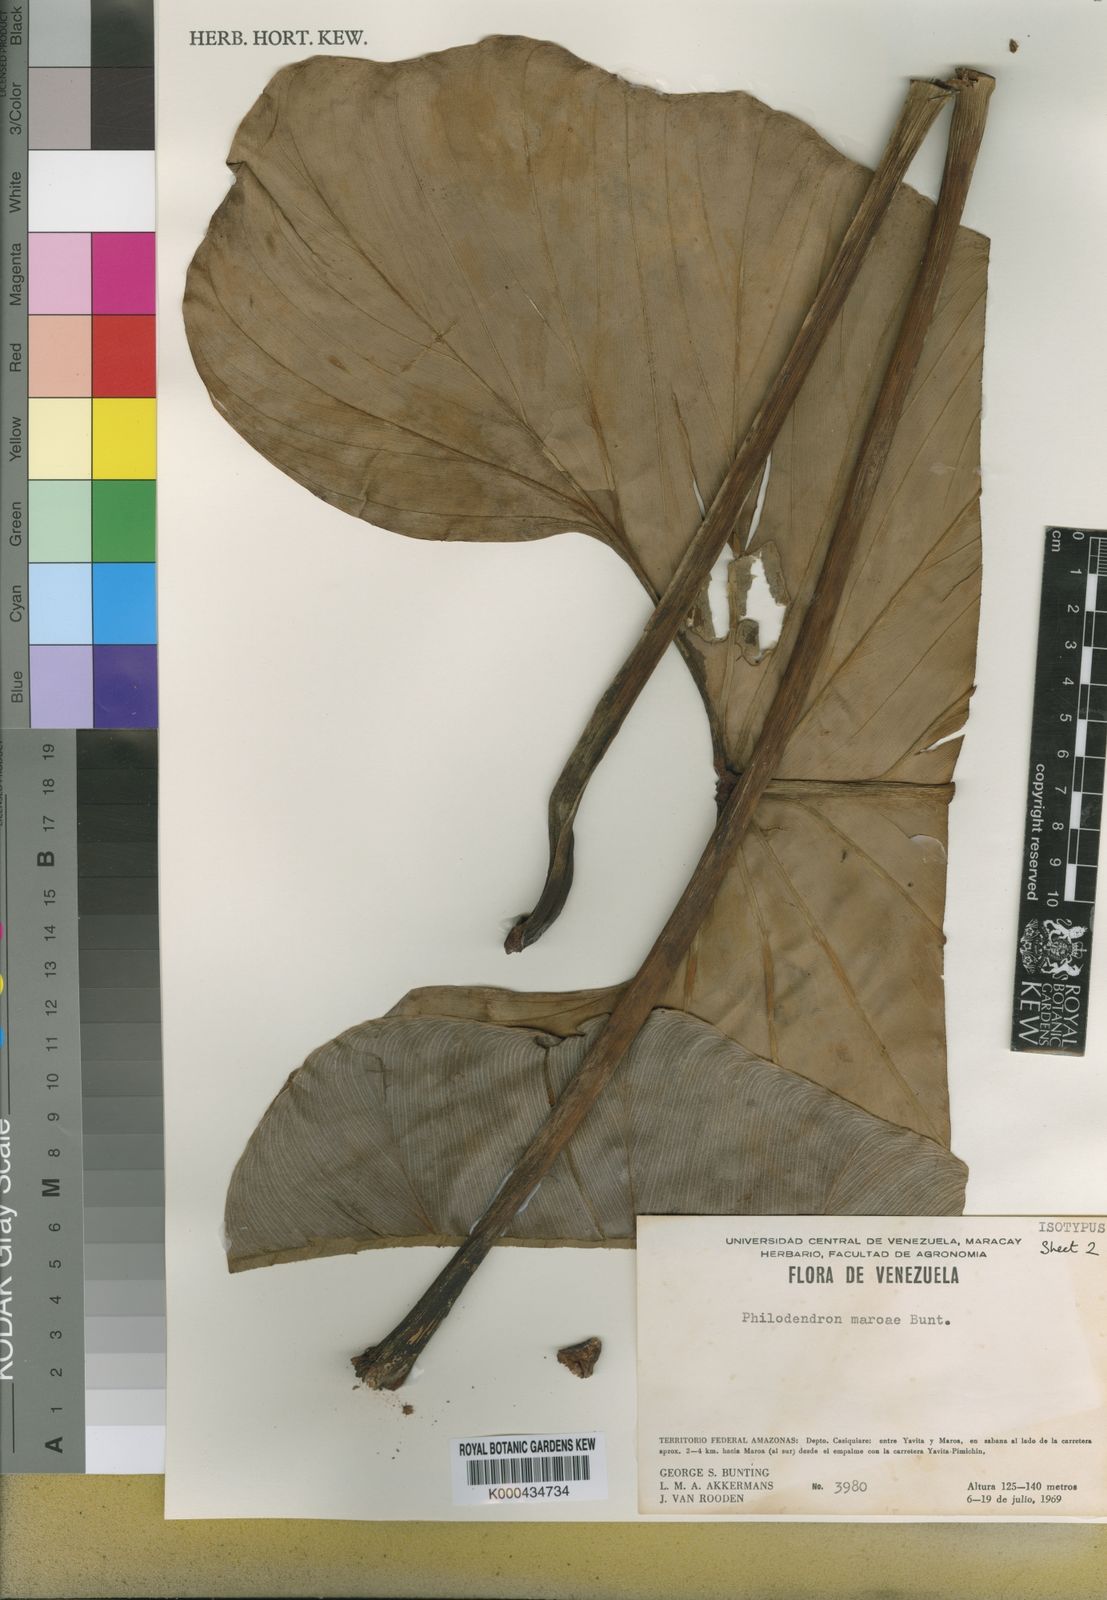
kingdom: Plantae
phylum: Tracheophyta
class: Liliopsida
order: Alismatales
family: Araceae
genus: Philodendron
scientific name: Philodendron maroae
